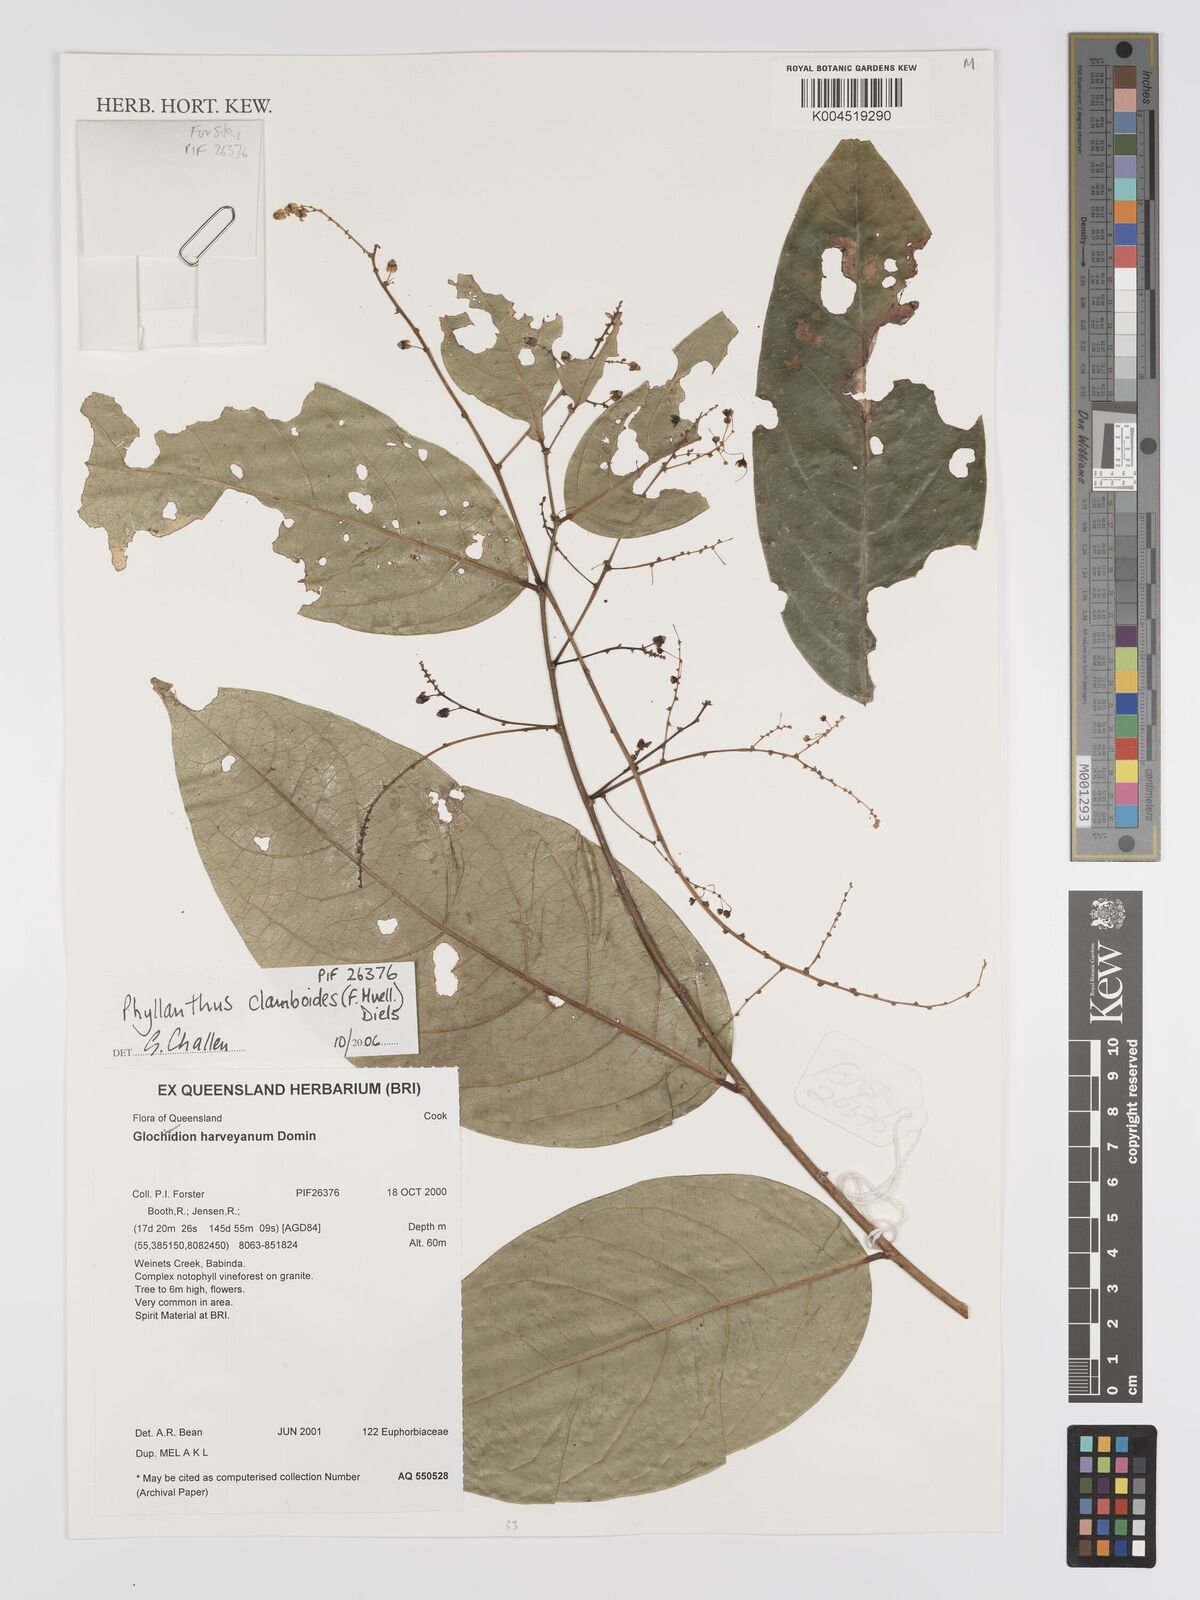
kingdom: Plantae
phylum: Tracheophyta
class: Magnoliopsida
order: Malpighiales
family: Phyllanthaceae
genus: Phyllanthus
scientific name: Phyllanthus clamboides
